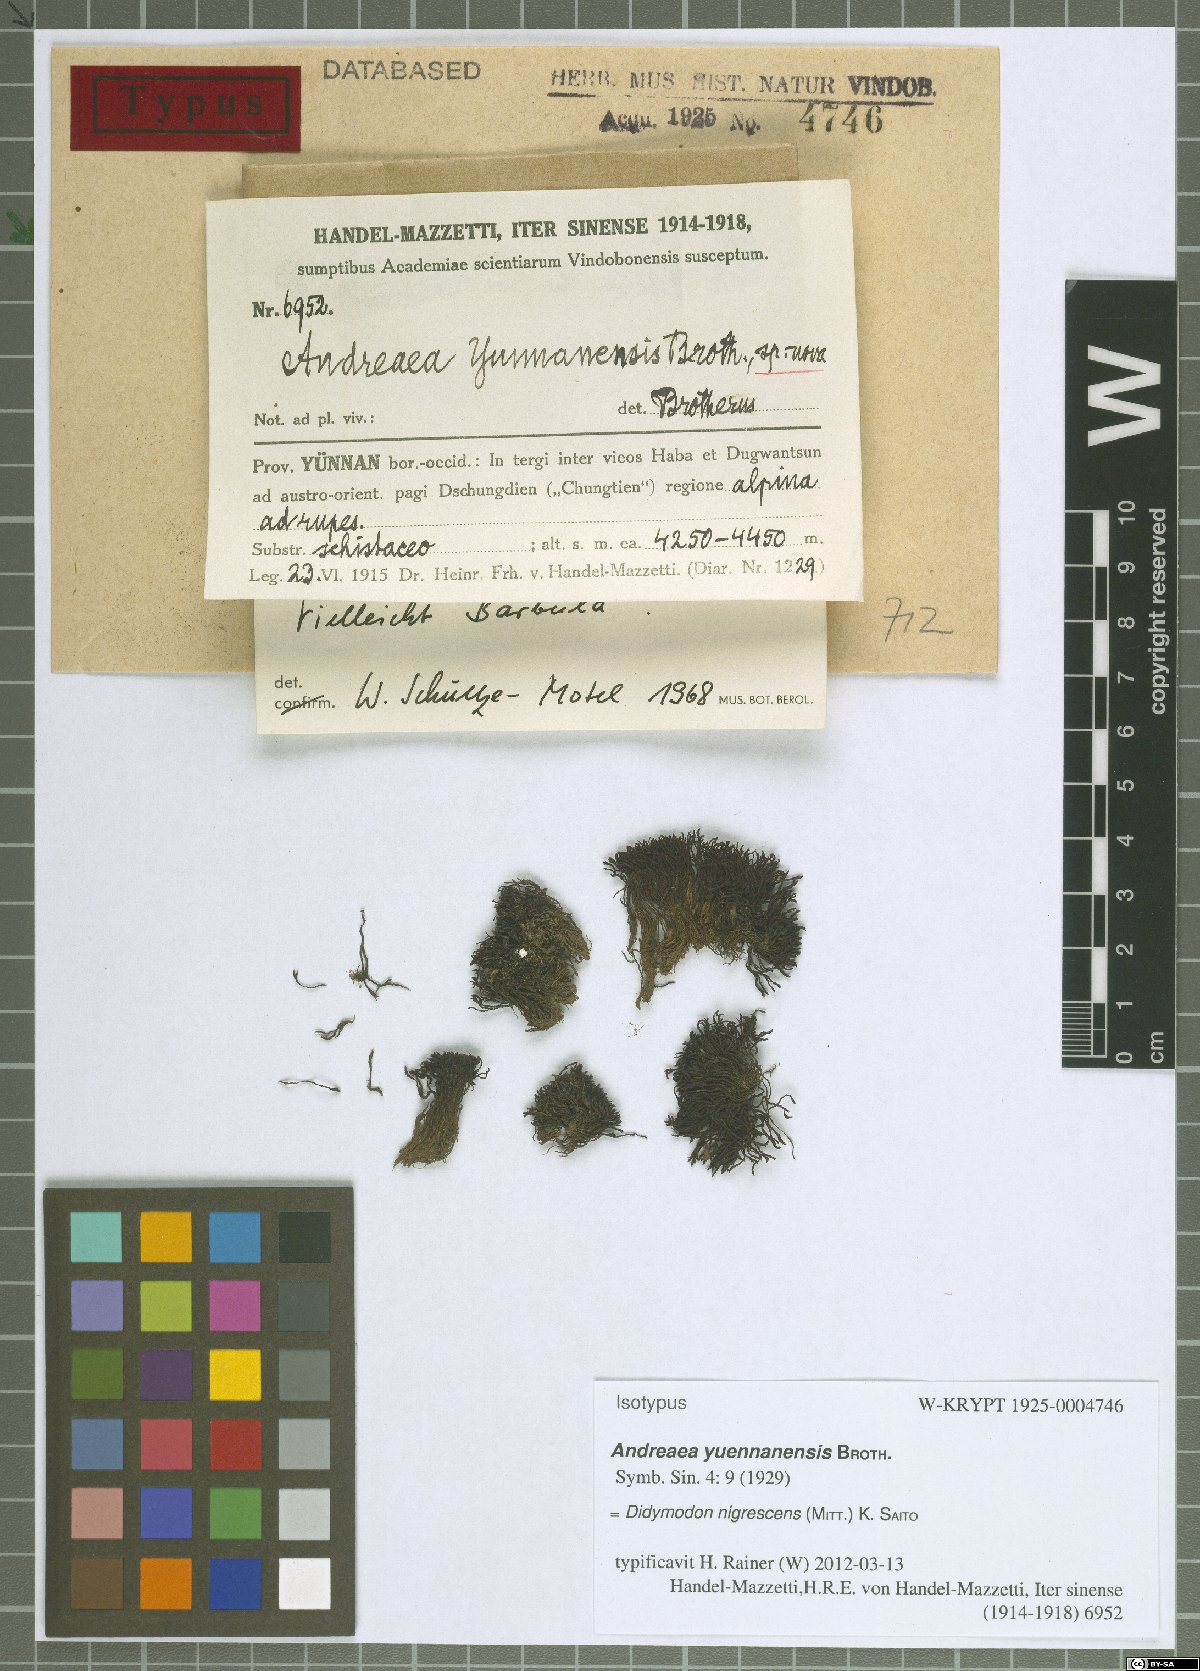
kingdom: Plantae
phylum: Bryophyta
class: Bryopsida
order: Pottiales
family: Pottiaceae
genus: Didymodon
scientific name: Didymodon nigrescens
